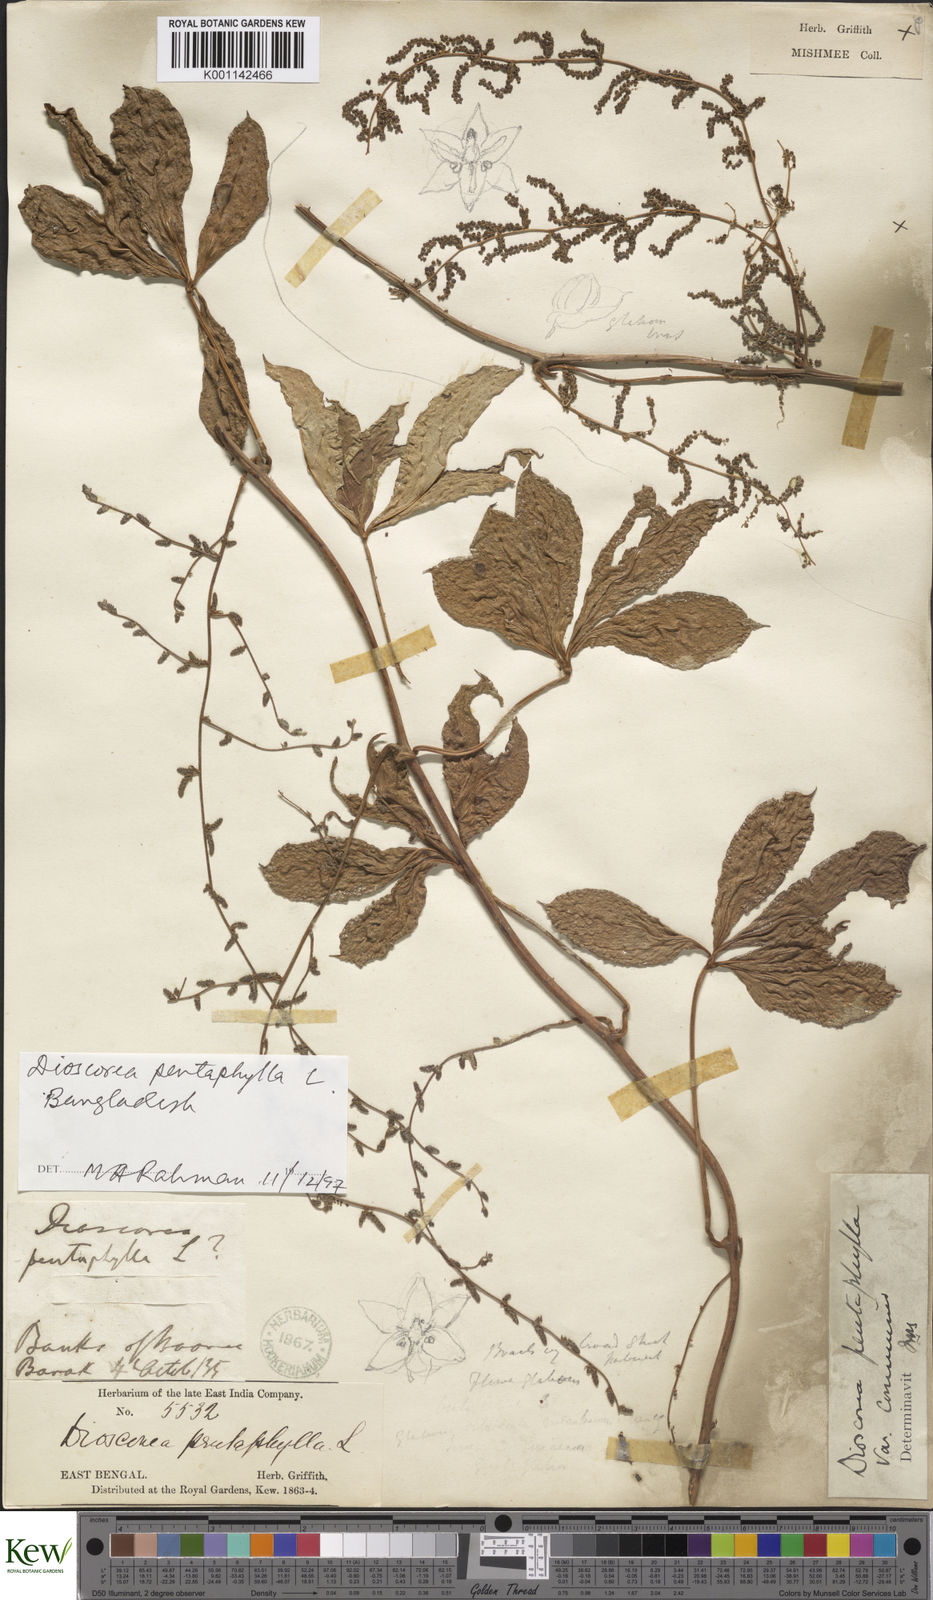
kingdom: Plantae
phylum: Tracheophyta
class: Liliopsida
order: Dioscoreales
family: Dioscoreaceae
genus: Dioscorea
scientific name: Dioscorea pentaphylla
